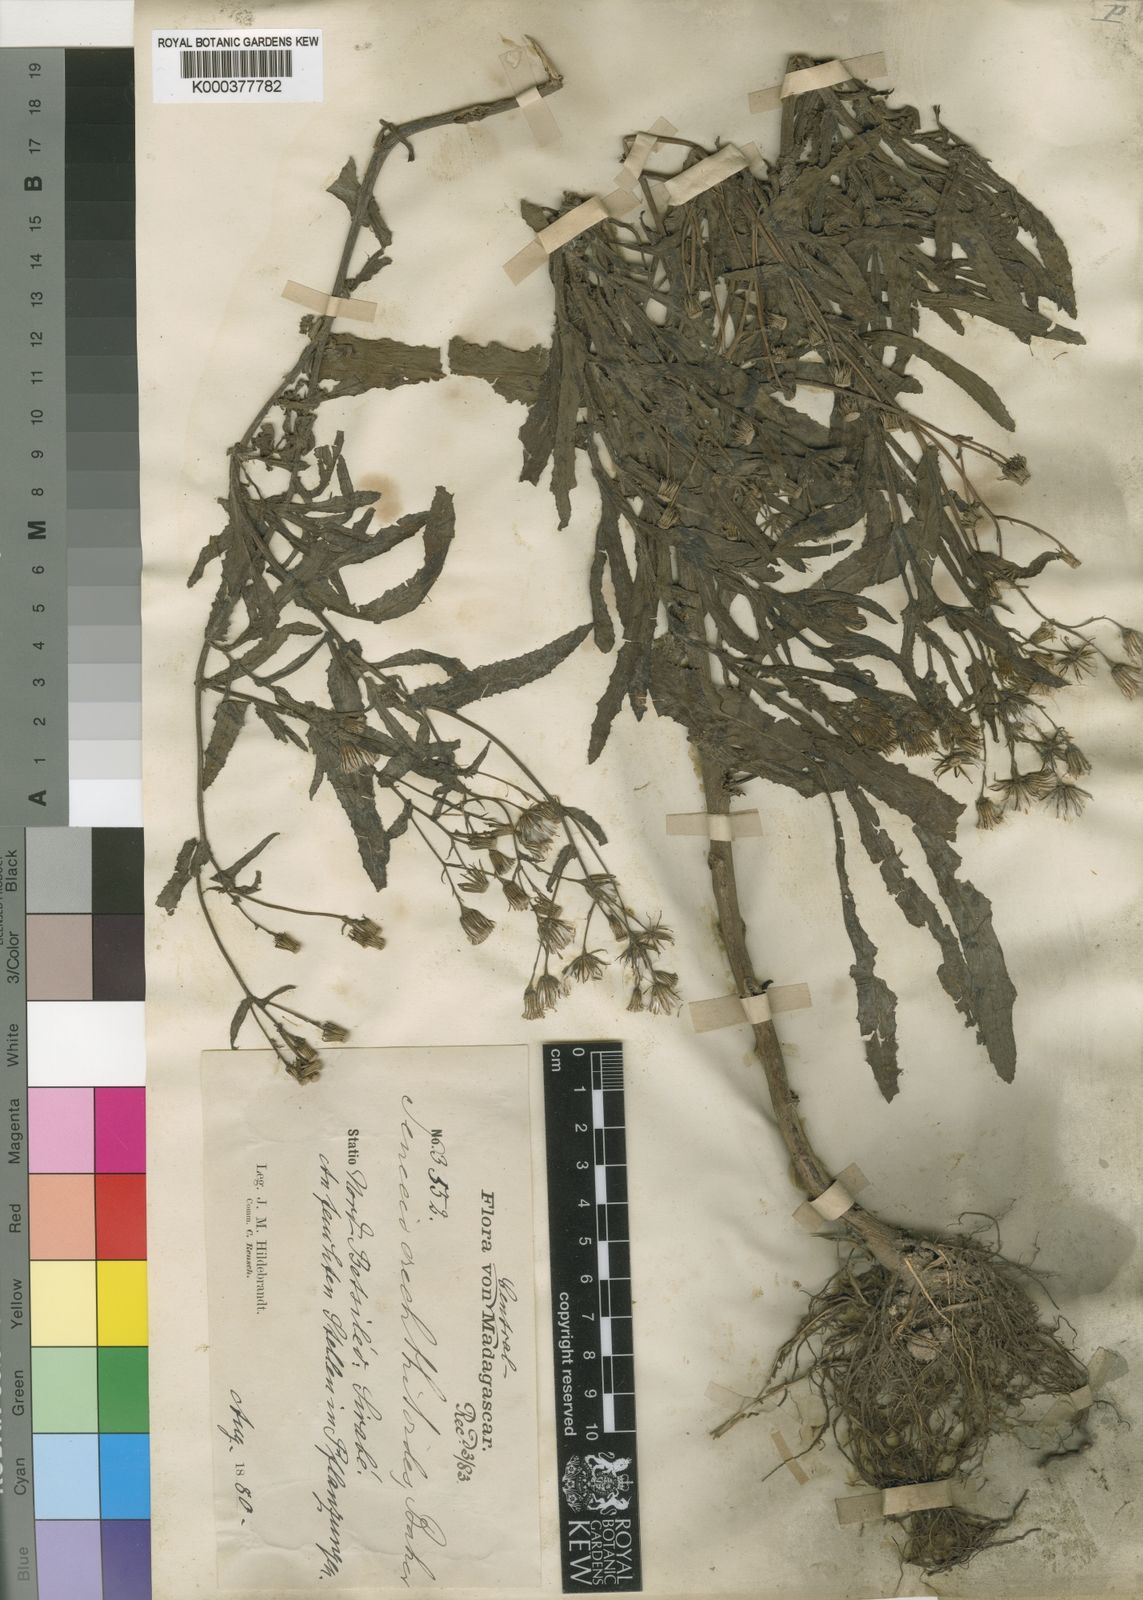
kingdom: Plantae
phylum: Tracheophyta
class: Magnoliopsida
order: Asterales
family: Asteraceae
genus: Senecio
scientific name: Senecio garnieri
